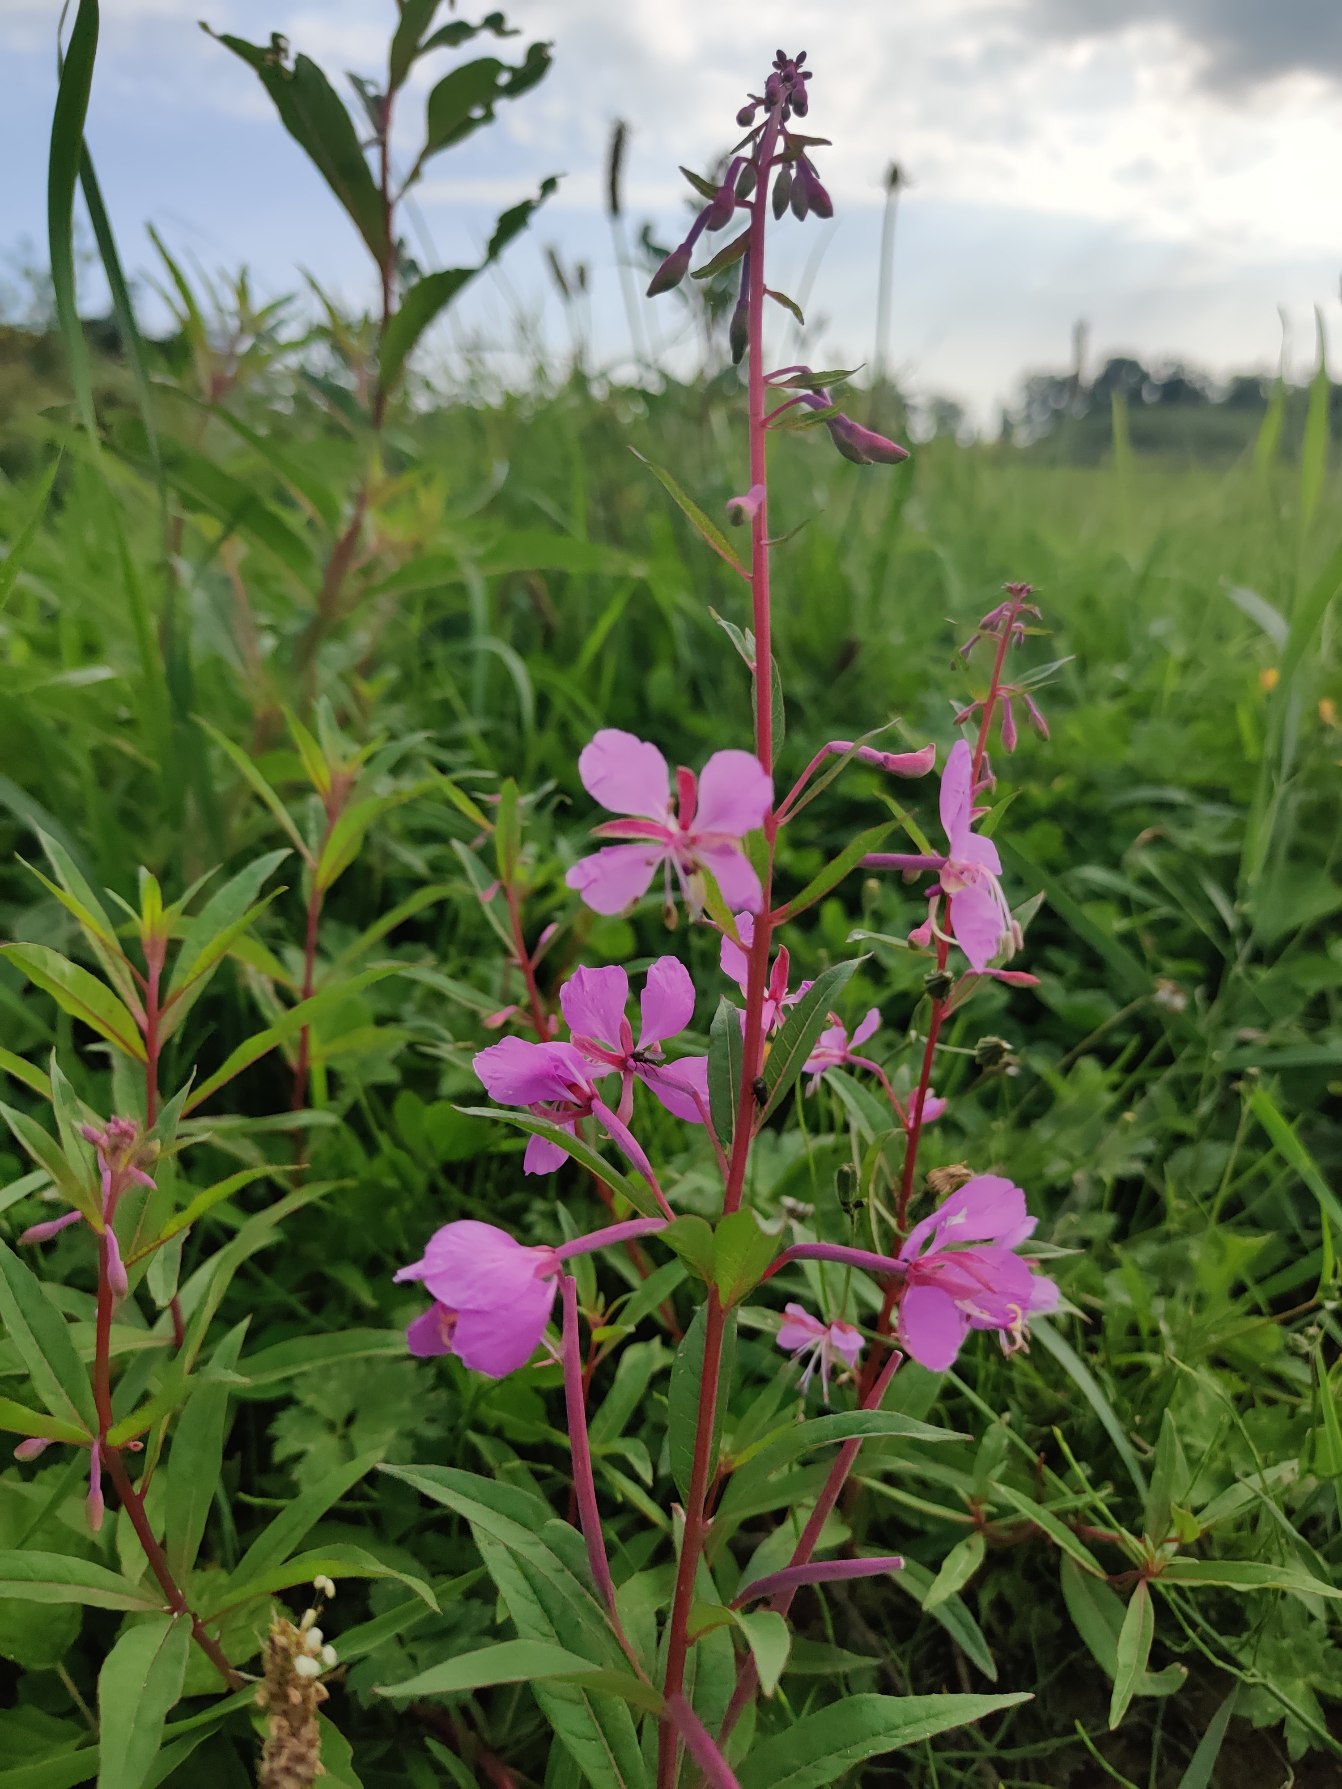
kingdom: Plantae
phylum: Tracheophyta
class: Magnoliopsida
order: Myrtales
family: Onagraceae
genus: Chamaenerion
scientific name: Chamaenerion angustifolium
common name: Gederams
